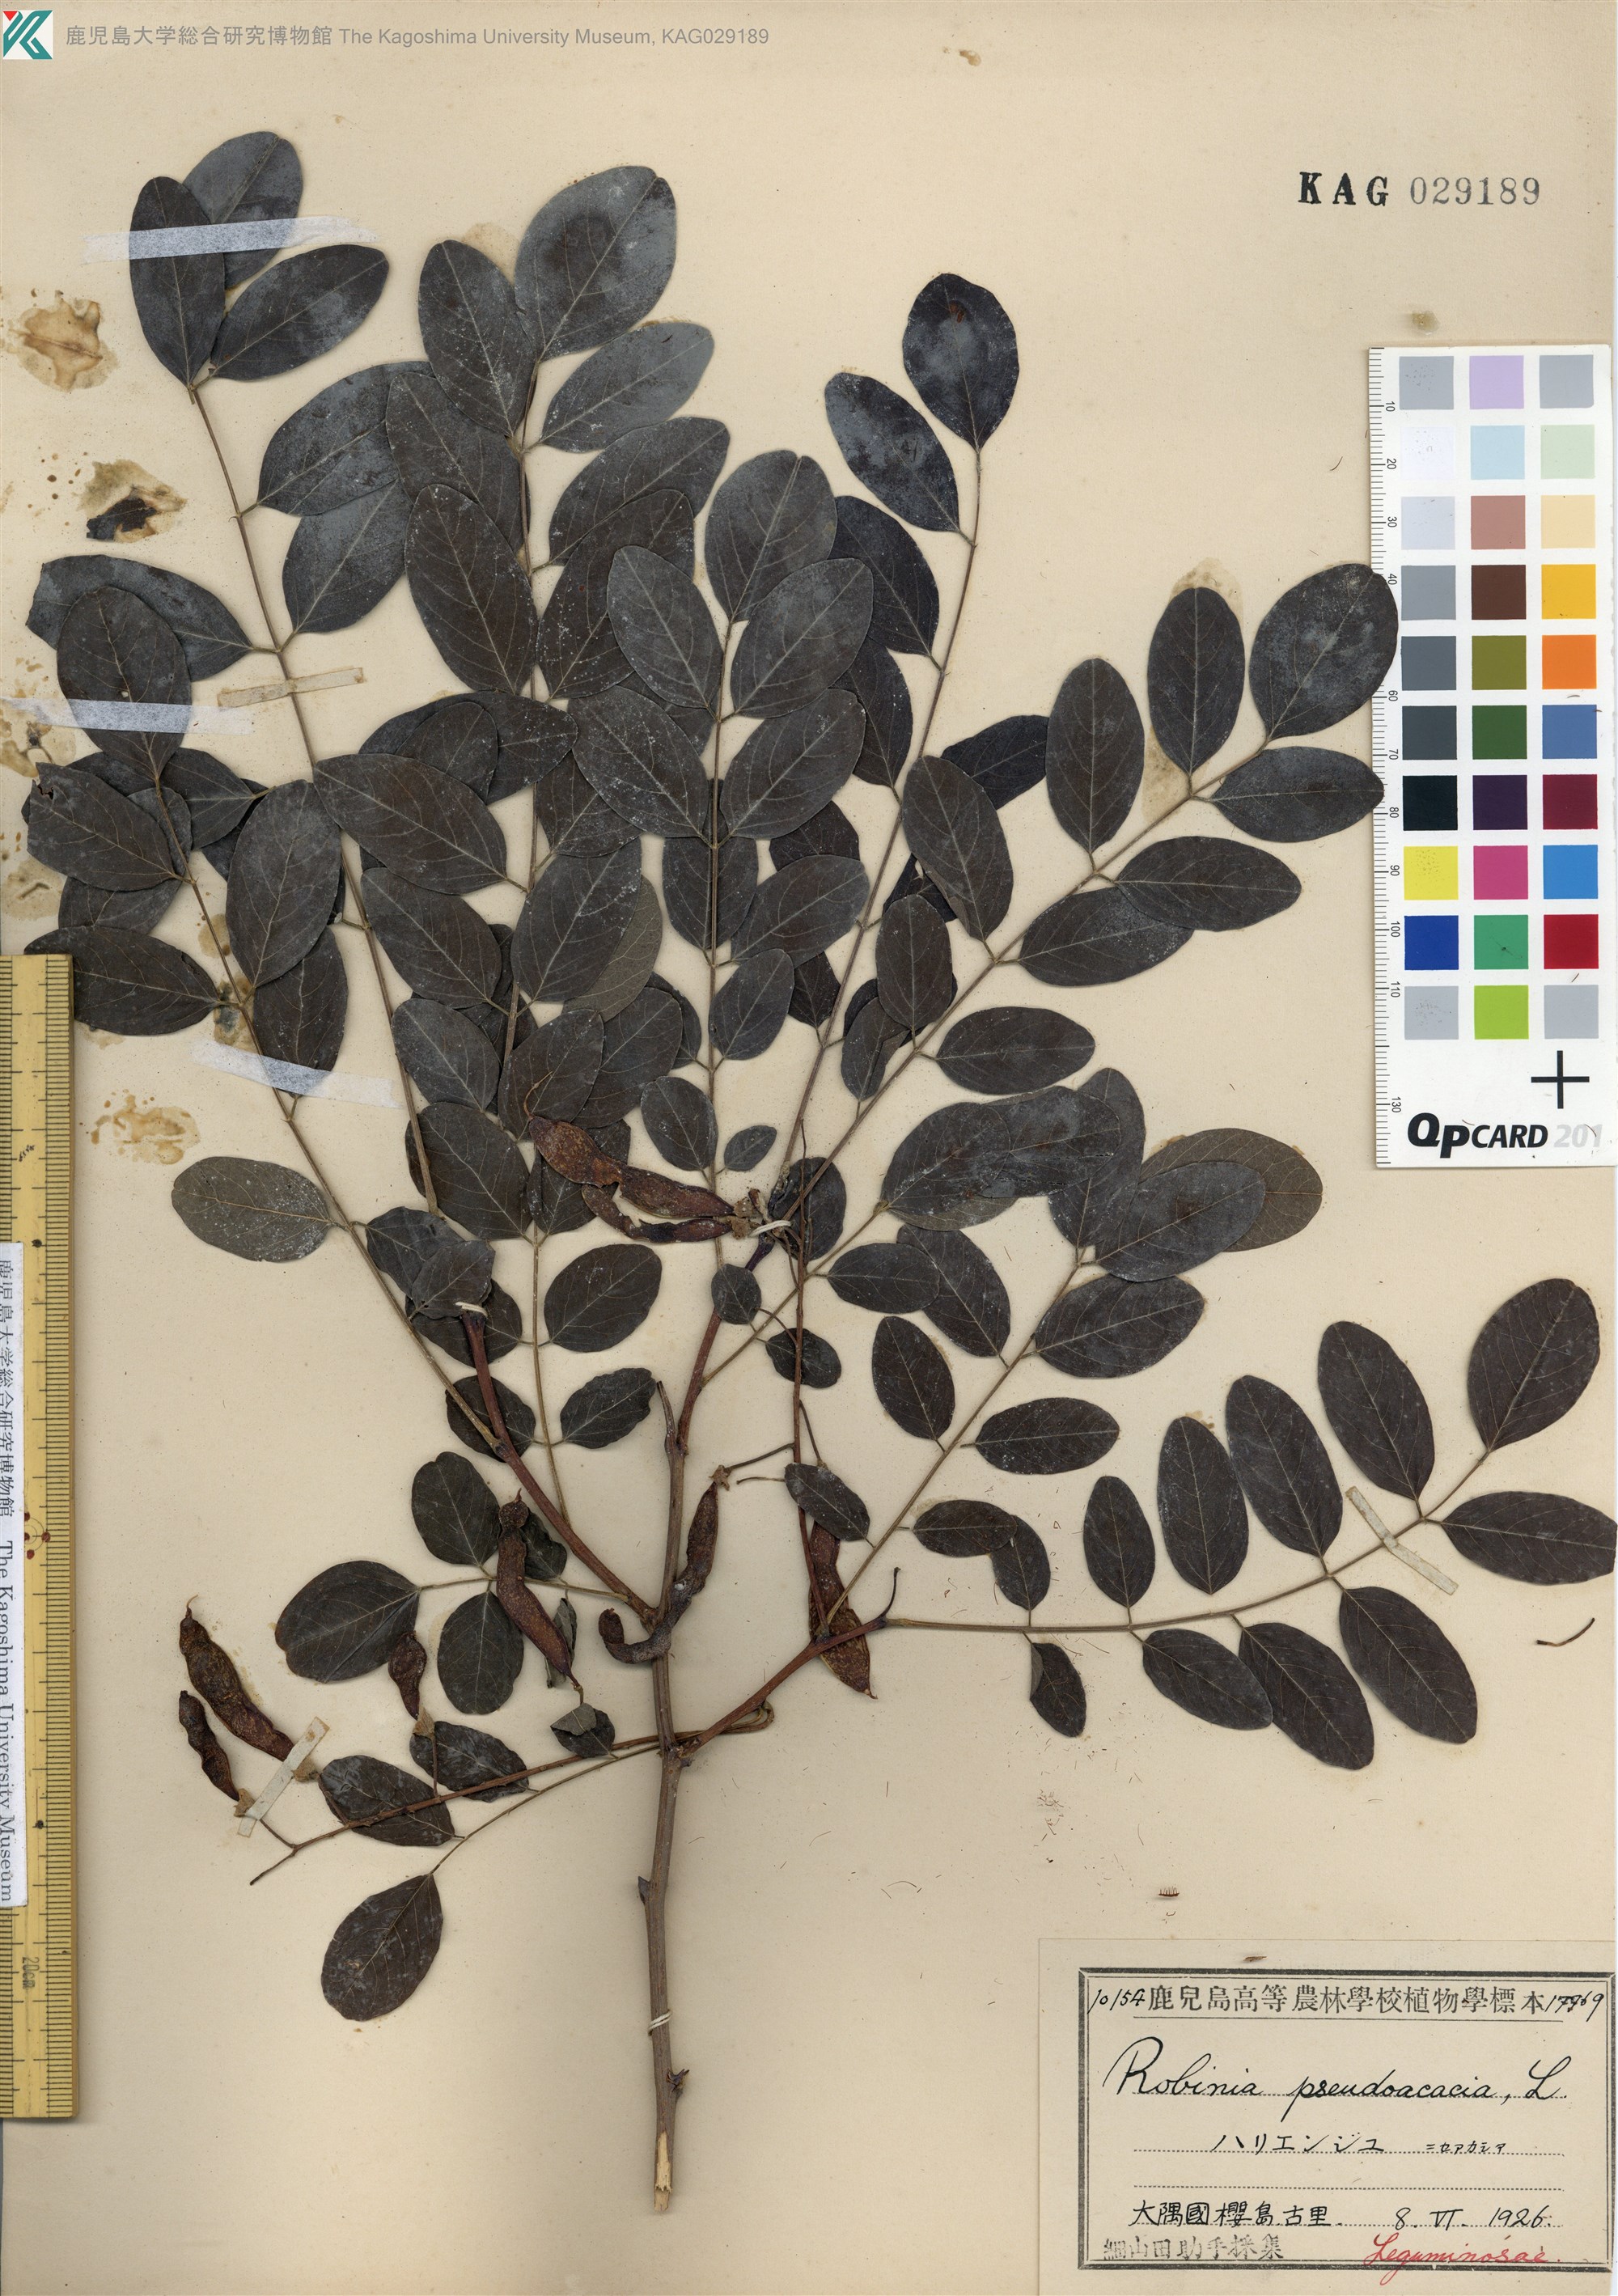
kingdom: Plantae
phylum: Tracheophyta
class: Magnoliopsida
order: Fabales
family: Fabaceae
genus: Robinia
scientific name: Robinia pseudoacacia
